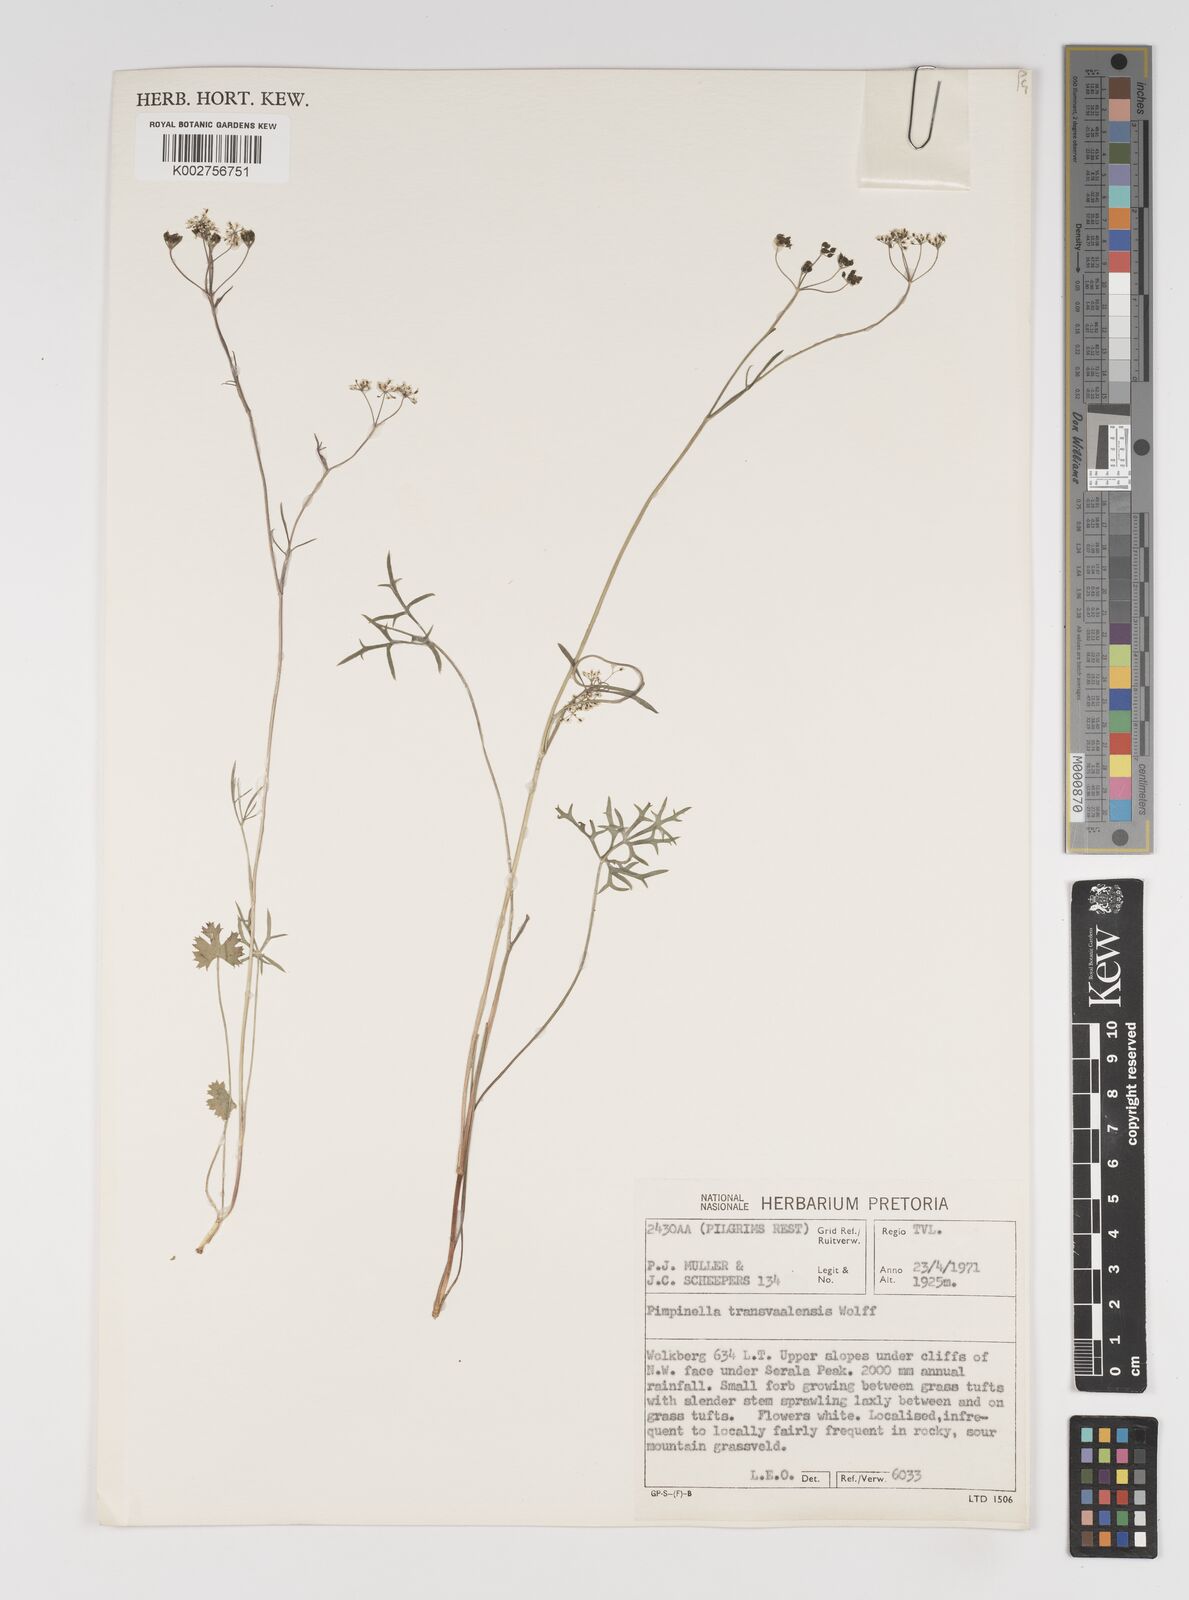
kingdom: Plantae
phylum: Tracheophyta
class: Magnoliopsida
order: Apiales
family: Apiaceae
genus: Pimpinella
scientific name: Pimpinella transvaalensis
